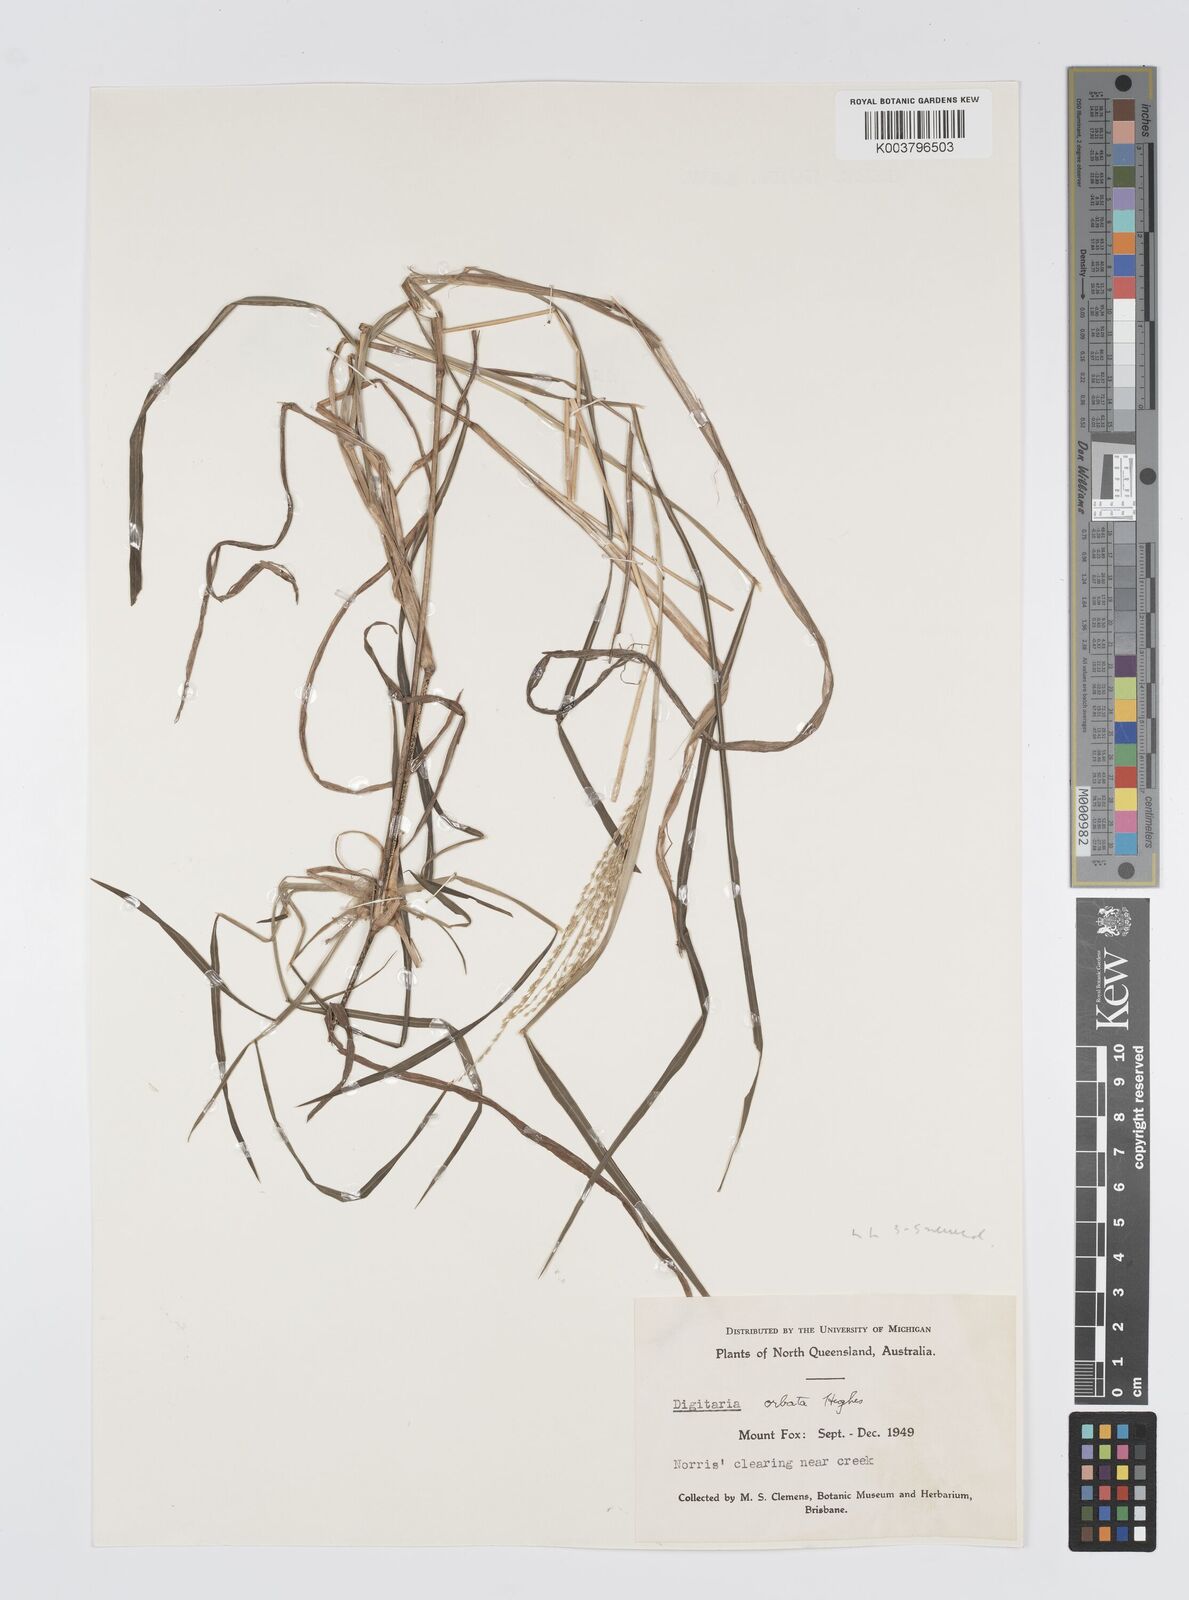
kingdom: Plantae
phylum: Tracheophyta
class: Liliopsida
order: Poales
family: Poaceae
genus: Digitaria
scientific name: Digitaria orbata
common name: Crabgrass
